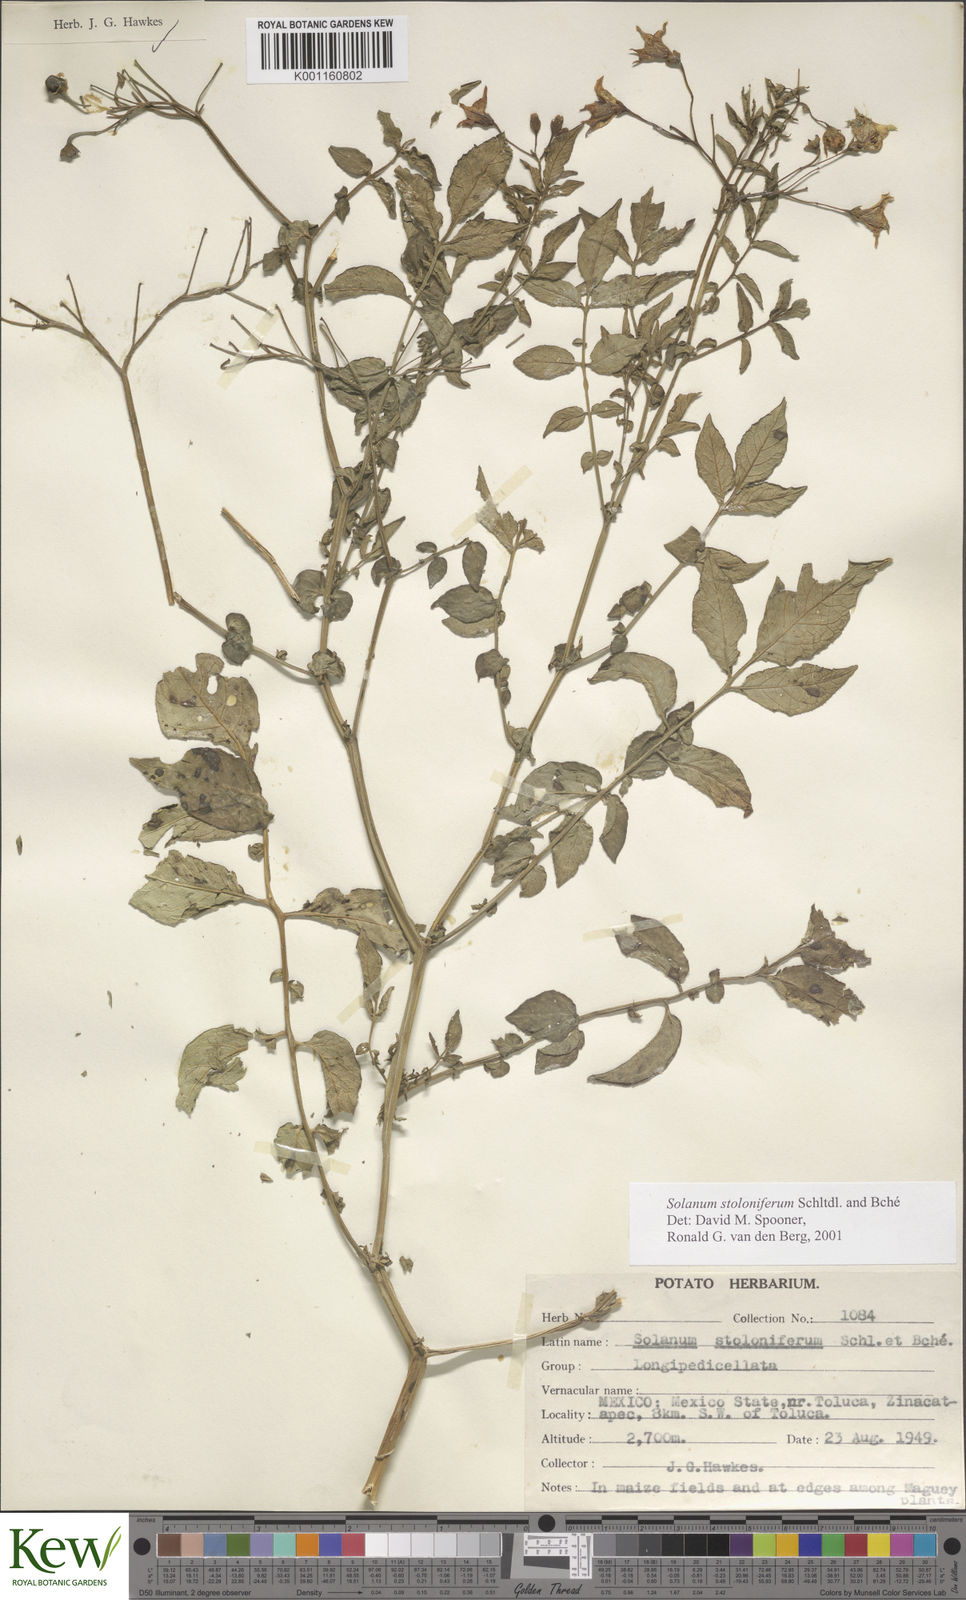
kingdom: Plantae
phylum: Tracheophyta
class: Magnoliopsida
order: Solanales
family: Solanaceae
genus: Solanum
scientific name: Solanum stoloniferum
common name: Fendler's nighshade
